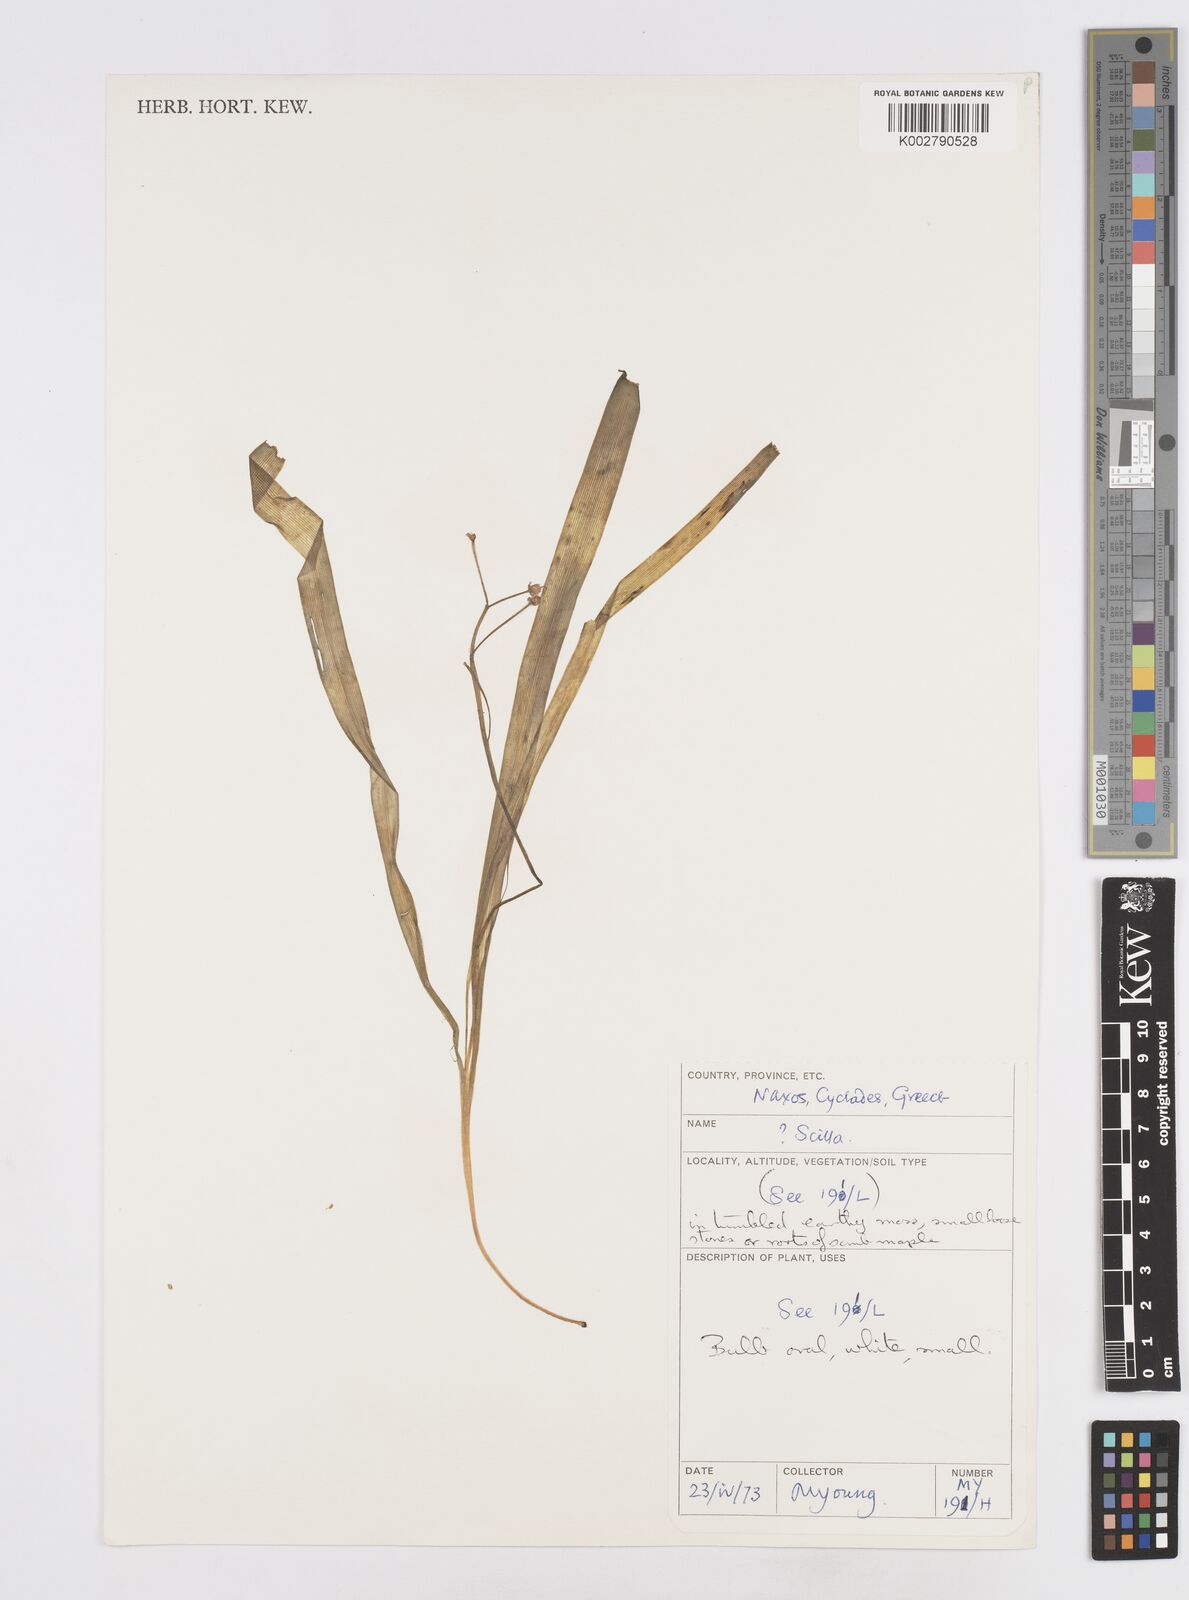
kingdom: Plantae
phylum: Tracheophyta
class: Liliopsida
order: Asparagales
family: Asparagaceae
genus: Scilla
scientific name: Scilla
